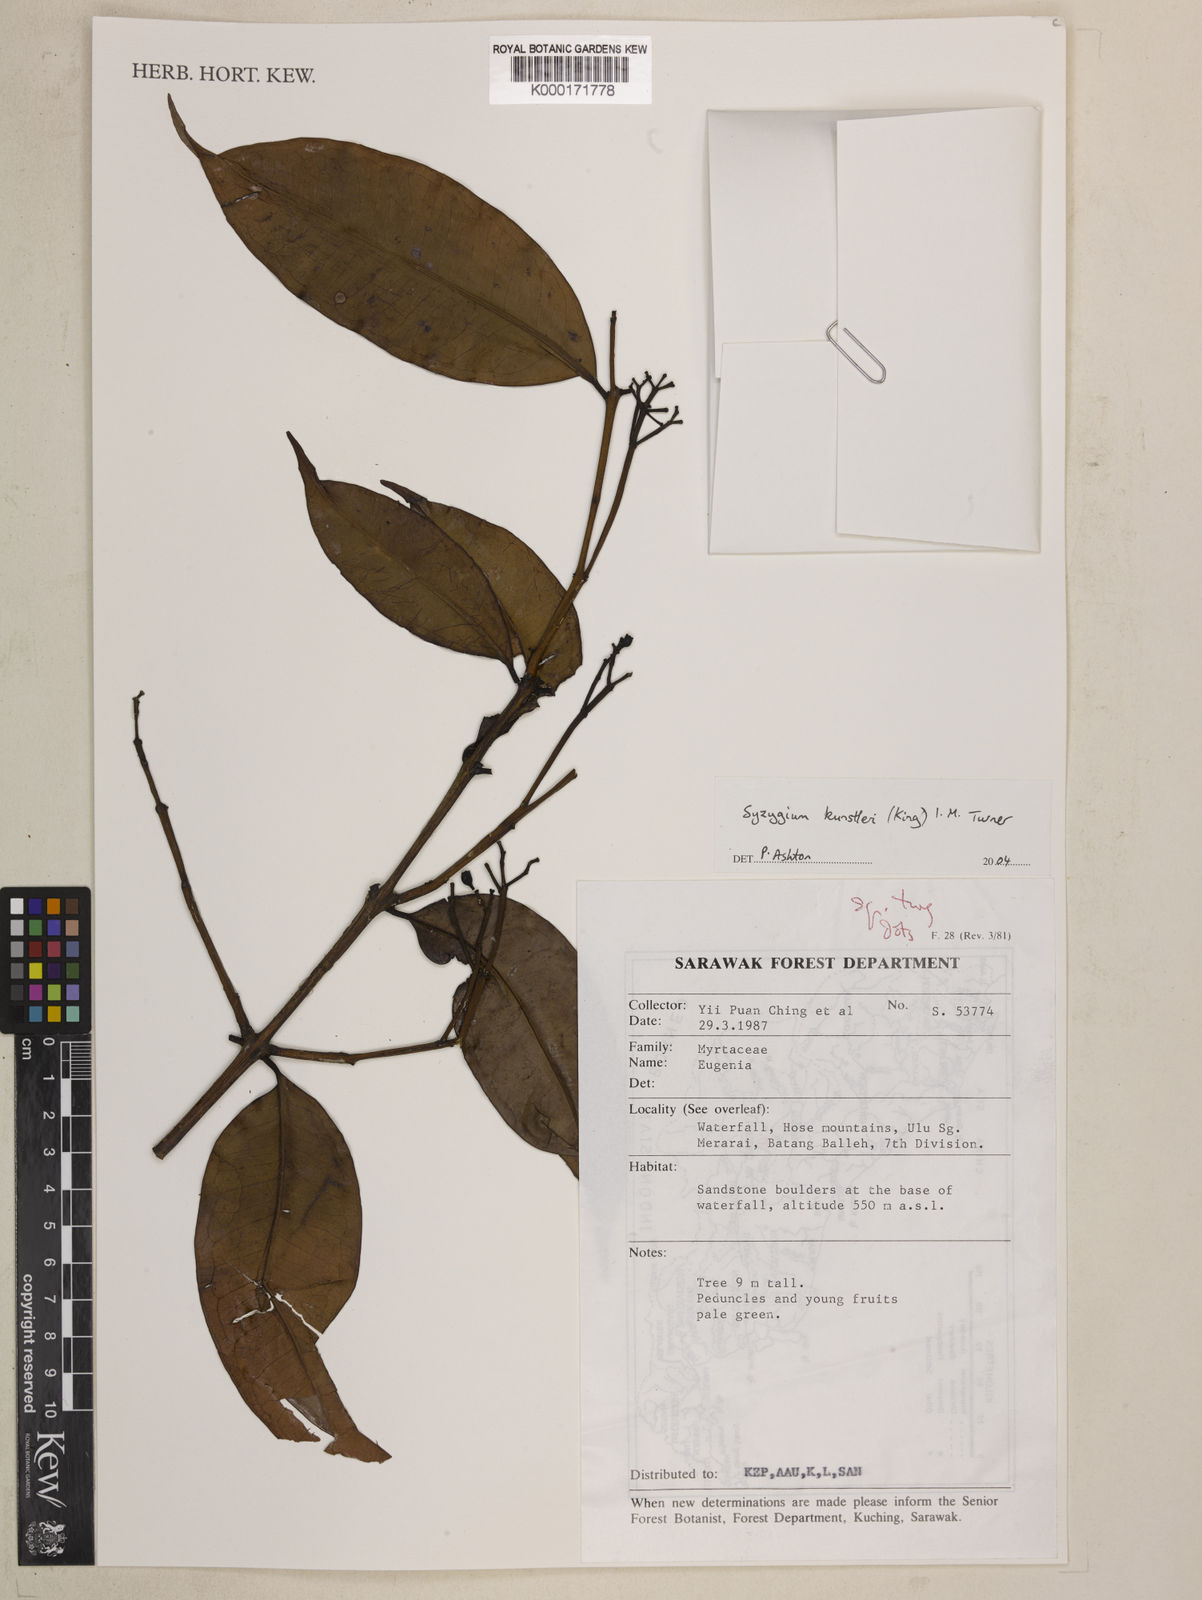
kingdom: Plantae
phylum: Tracheophyta
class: Magnoliopsida
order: Myrtales
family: Myrtaceae
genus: Syzygium
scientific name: Syzygium
